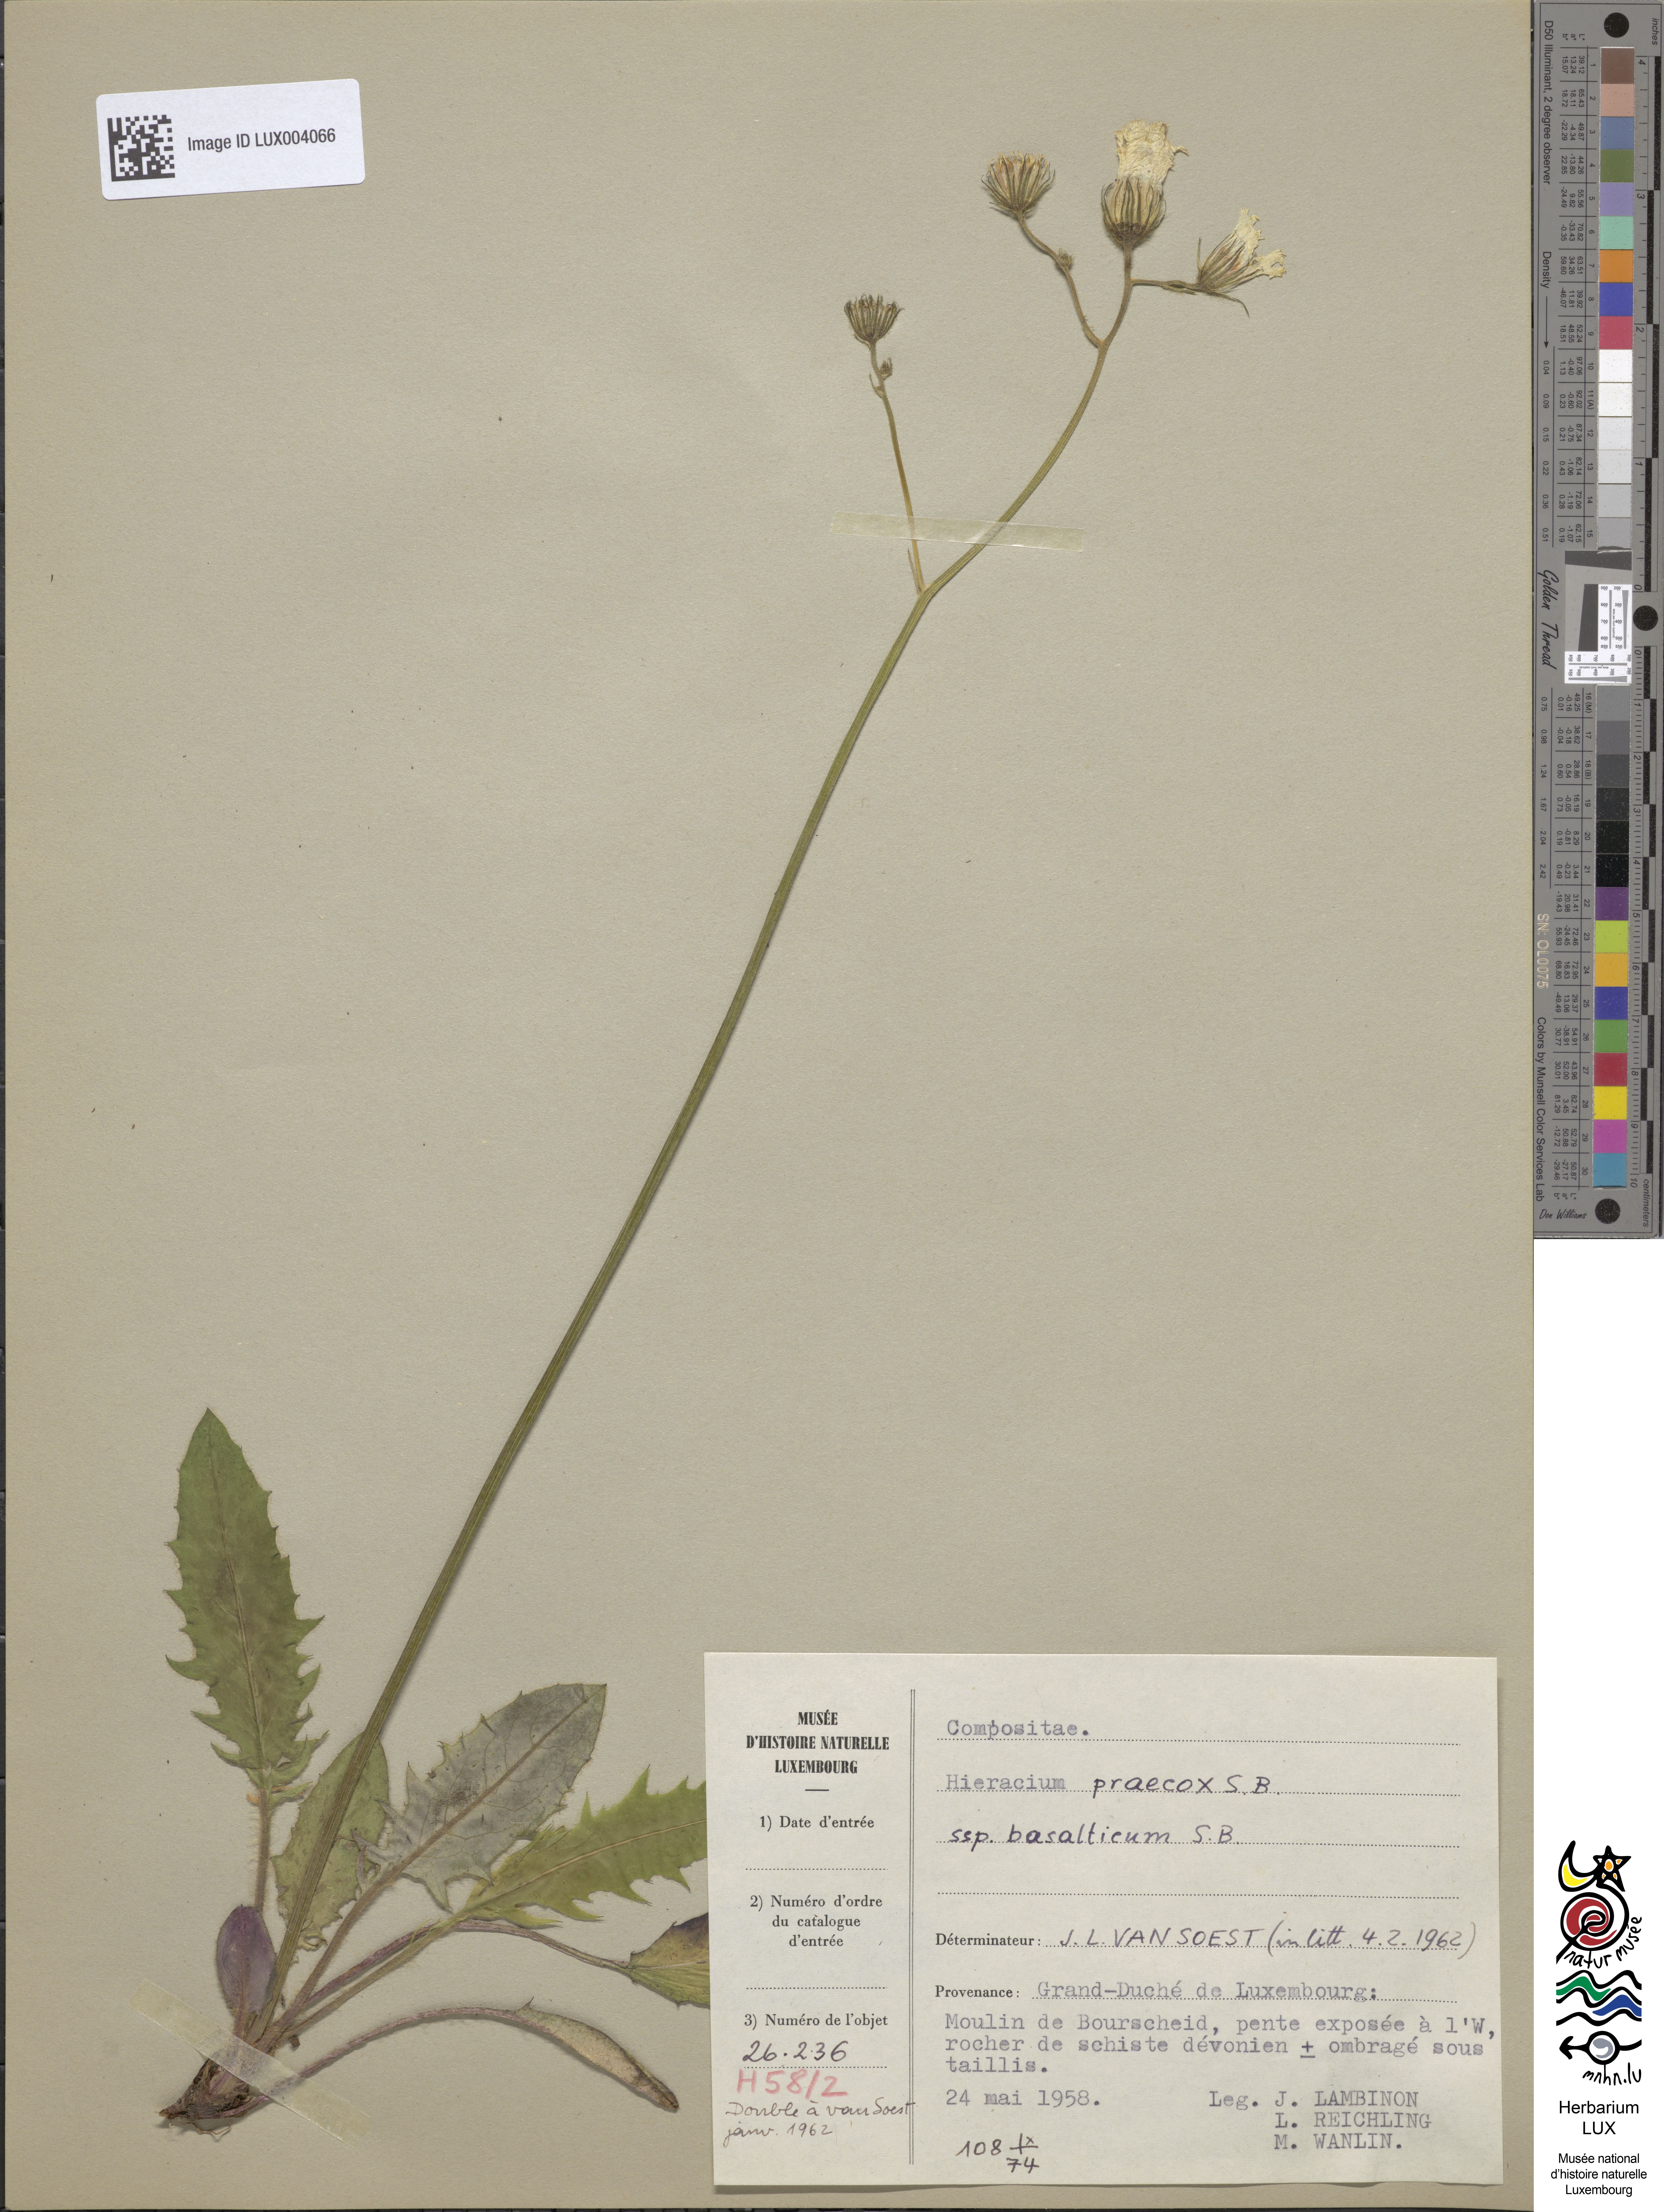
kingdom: Plantae
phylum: Tracheophyta
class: Magnoliopsida
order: Asterales
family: Asteraceae
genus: Hieracium
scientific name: Hieracium glaucinum
